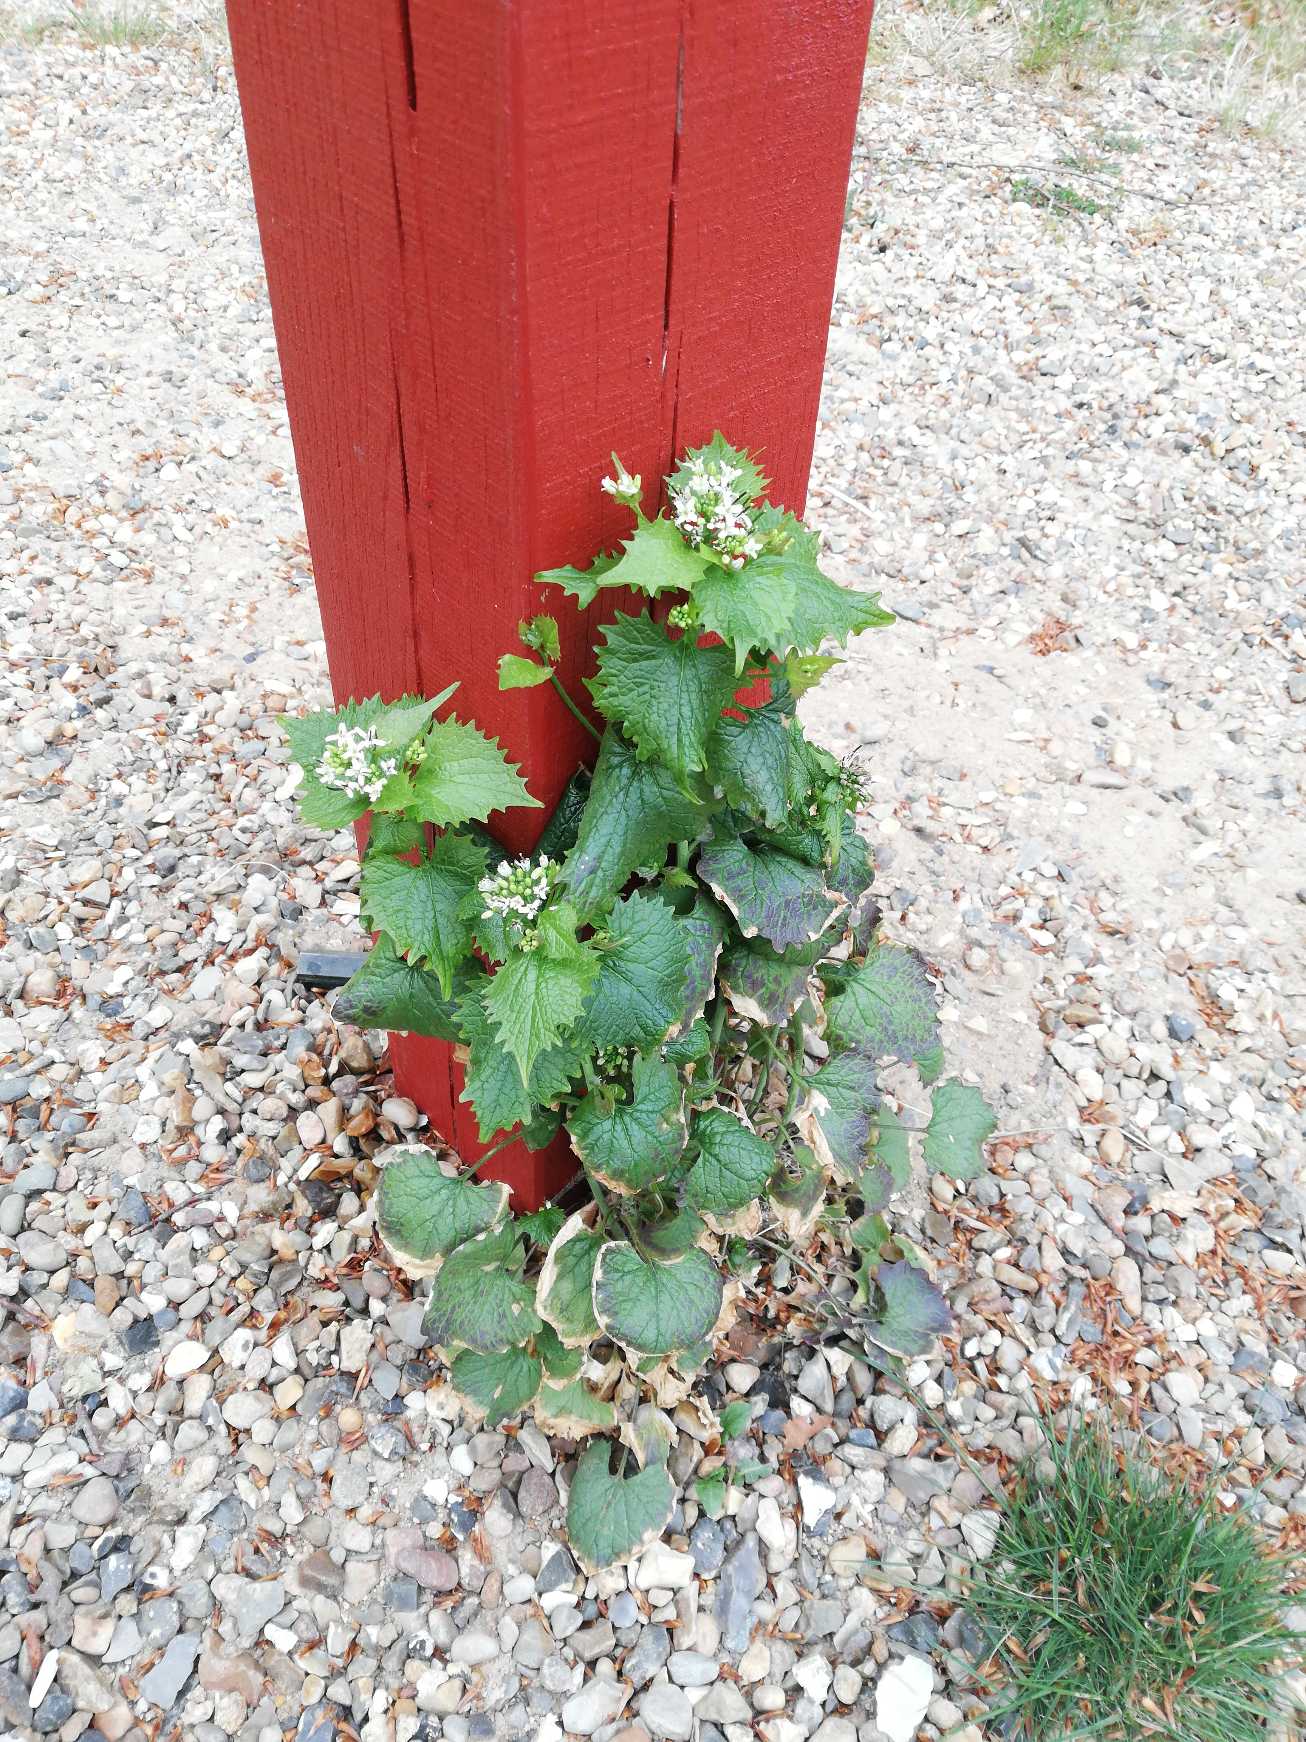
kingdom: Plantae
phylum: Tracheophyta
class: Magnoliopsida
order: Brassicales
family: Brassicaceae
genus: Alliaria
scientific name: Alliaria petiolata
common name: Løgkarse
